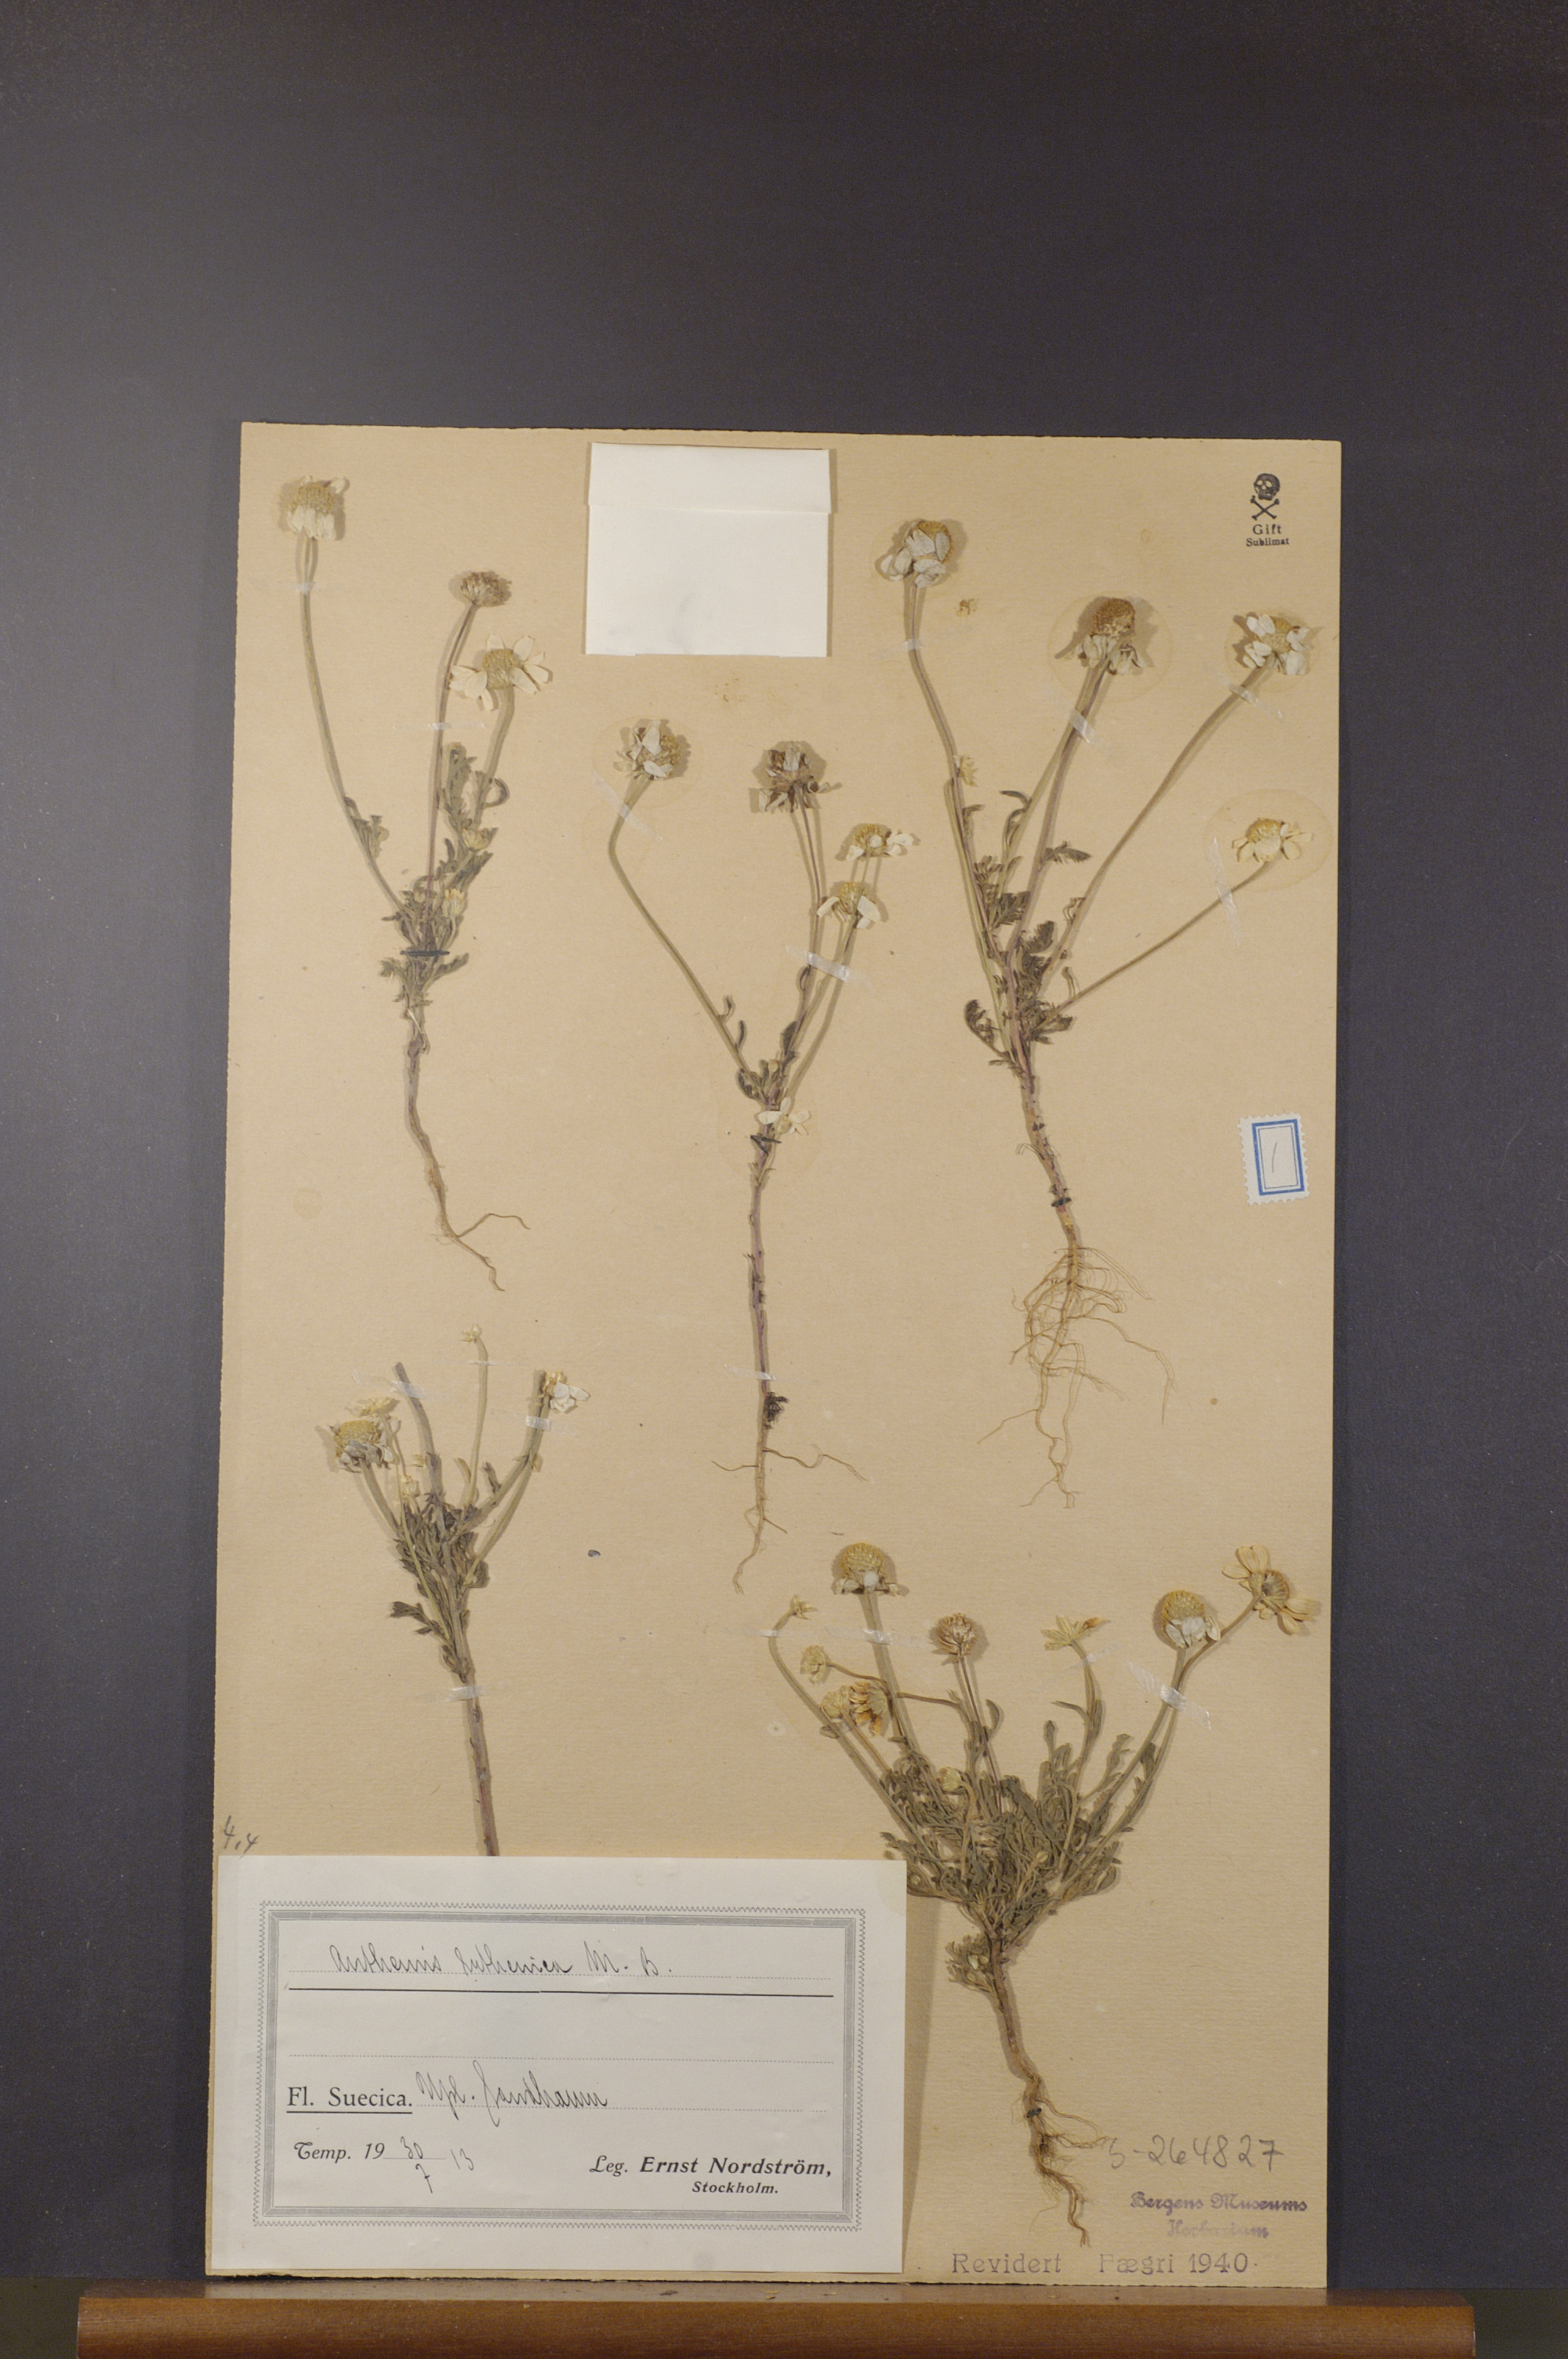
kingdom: Plantae
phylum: Tracheophyta
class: Magnoliopsida
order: Asterales
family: Asteraceae
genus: Anthemis
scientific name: Anthemis ruthenica
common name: Eastern chamomile
